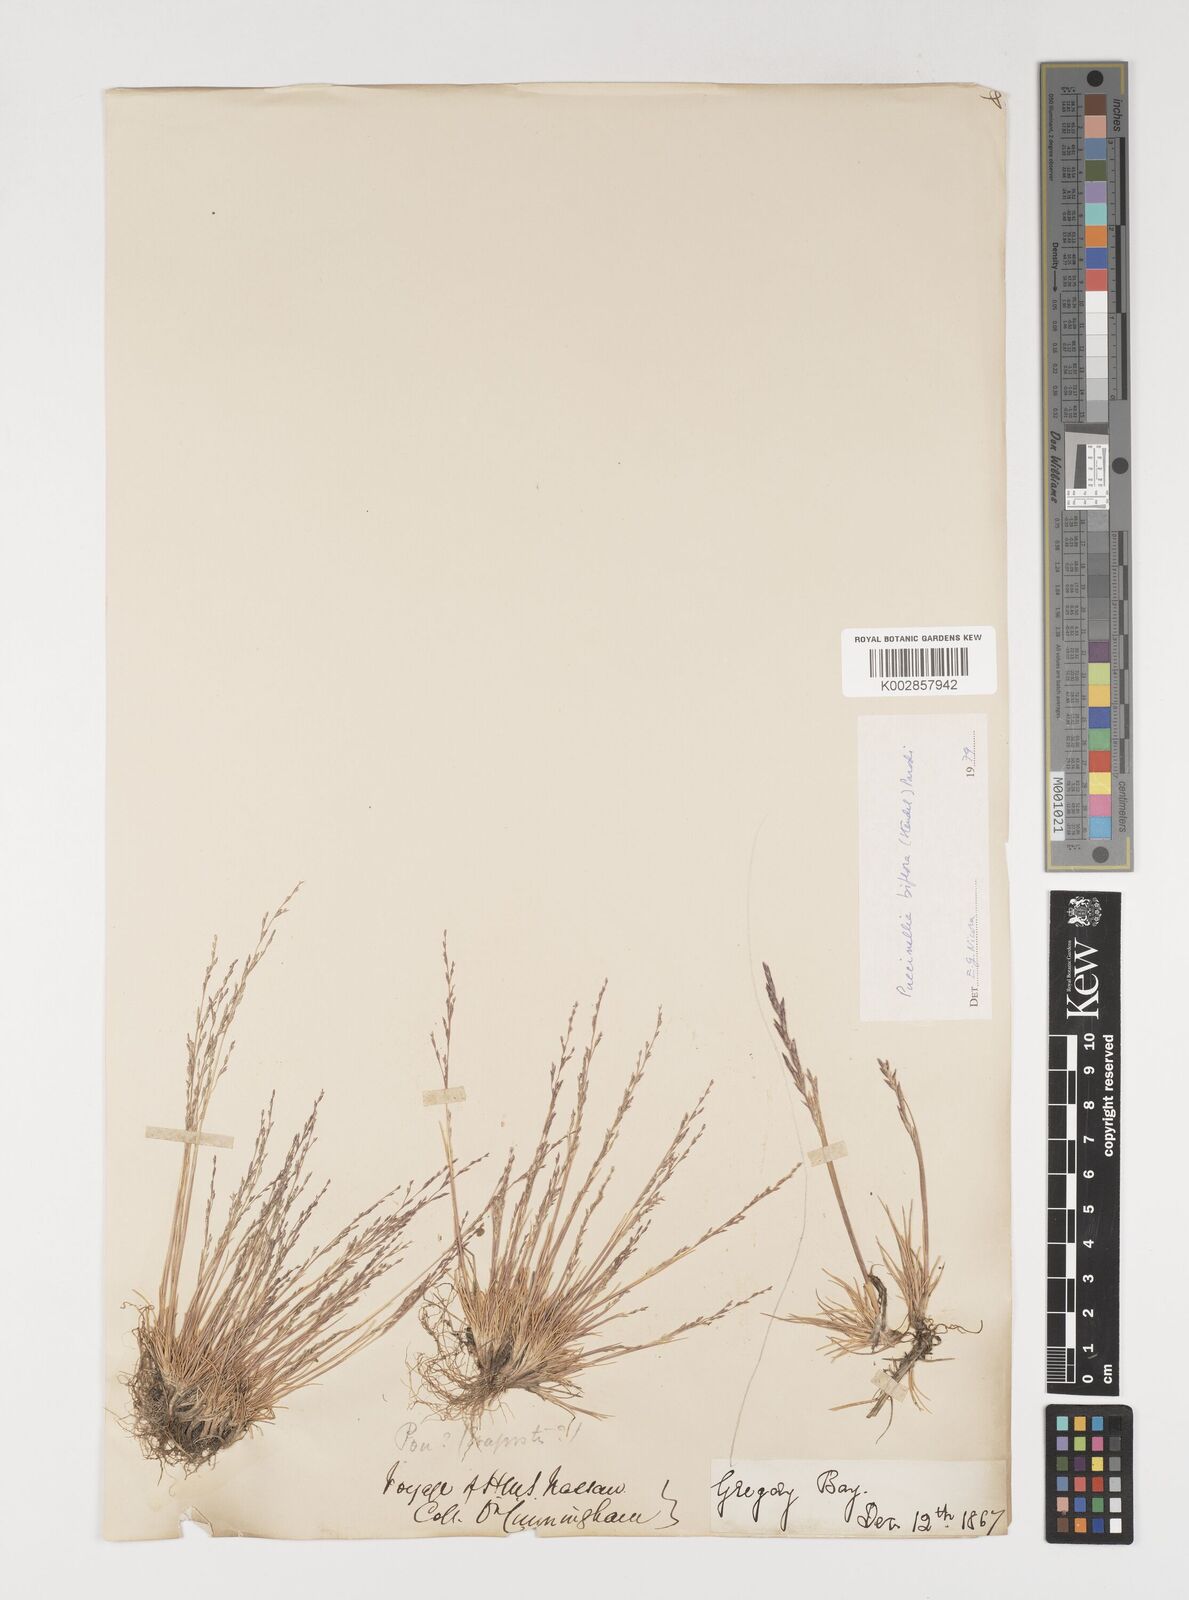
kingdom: Plantae
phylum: Tracheophyta
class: Liliopsida
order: Poales
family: Poaceae
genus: Puccinellia
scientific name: Puccinellia biflora
